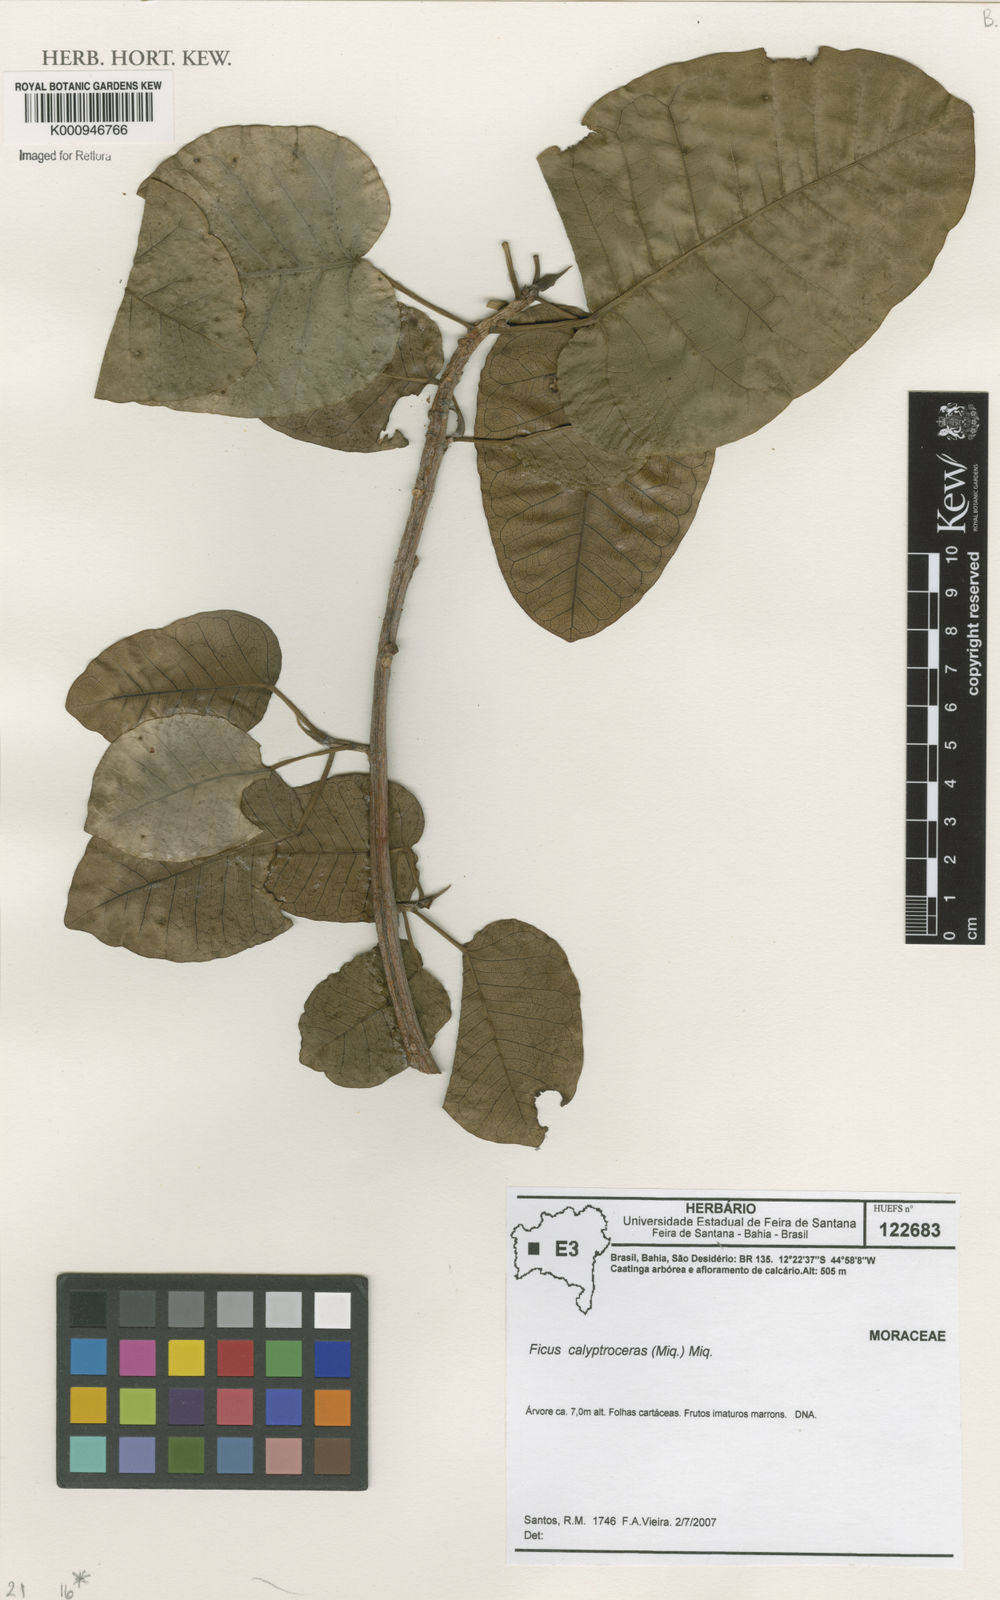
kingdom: Plantae
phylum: Tracheophyta
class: Magnoliopsida
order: Rosales
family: Moraceae
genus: Ficus
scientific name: Ficus calyptroceras
